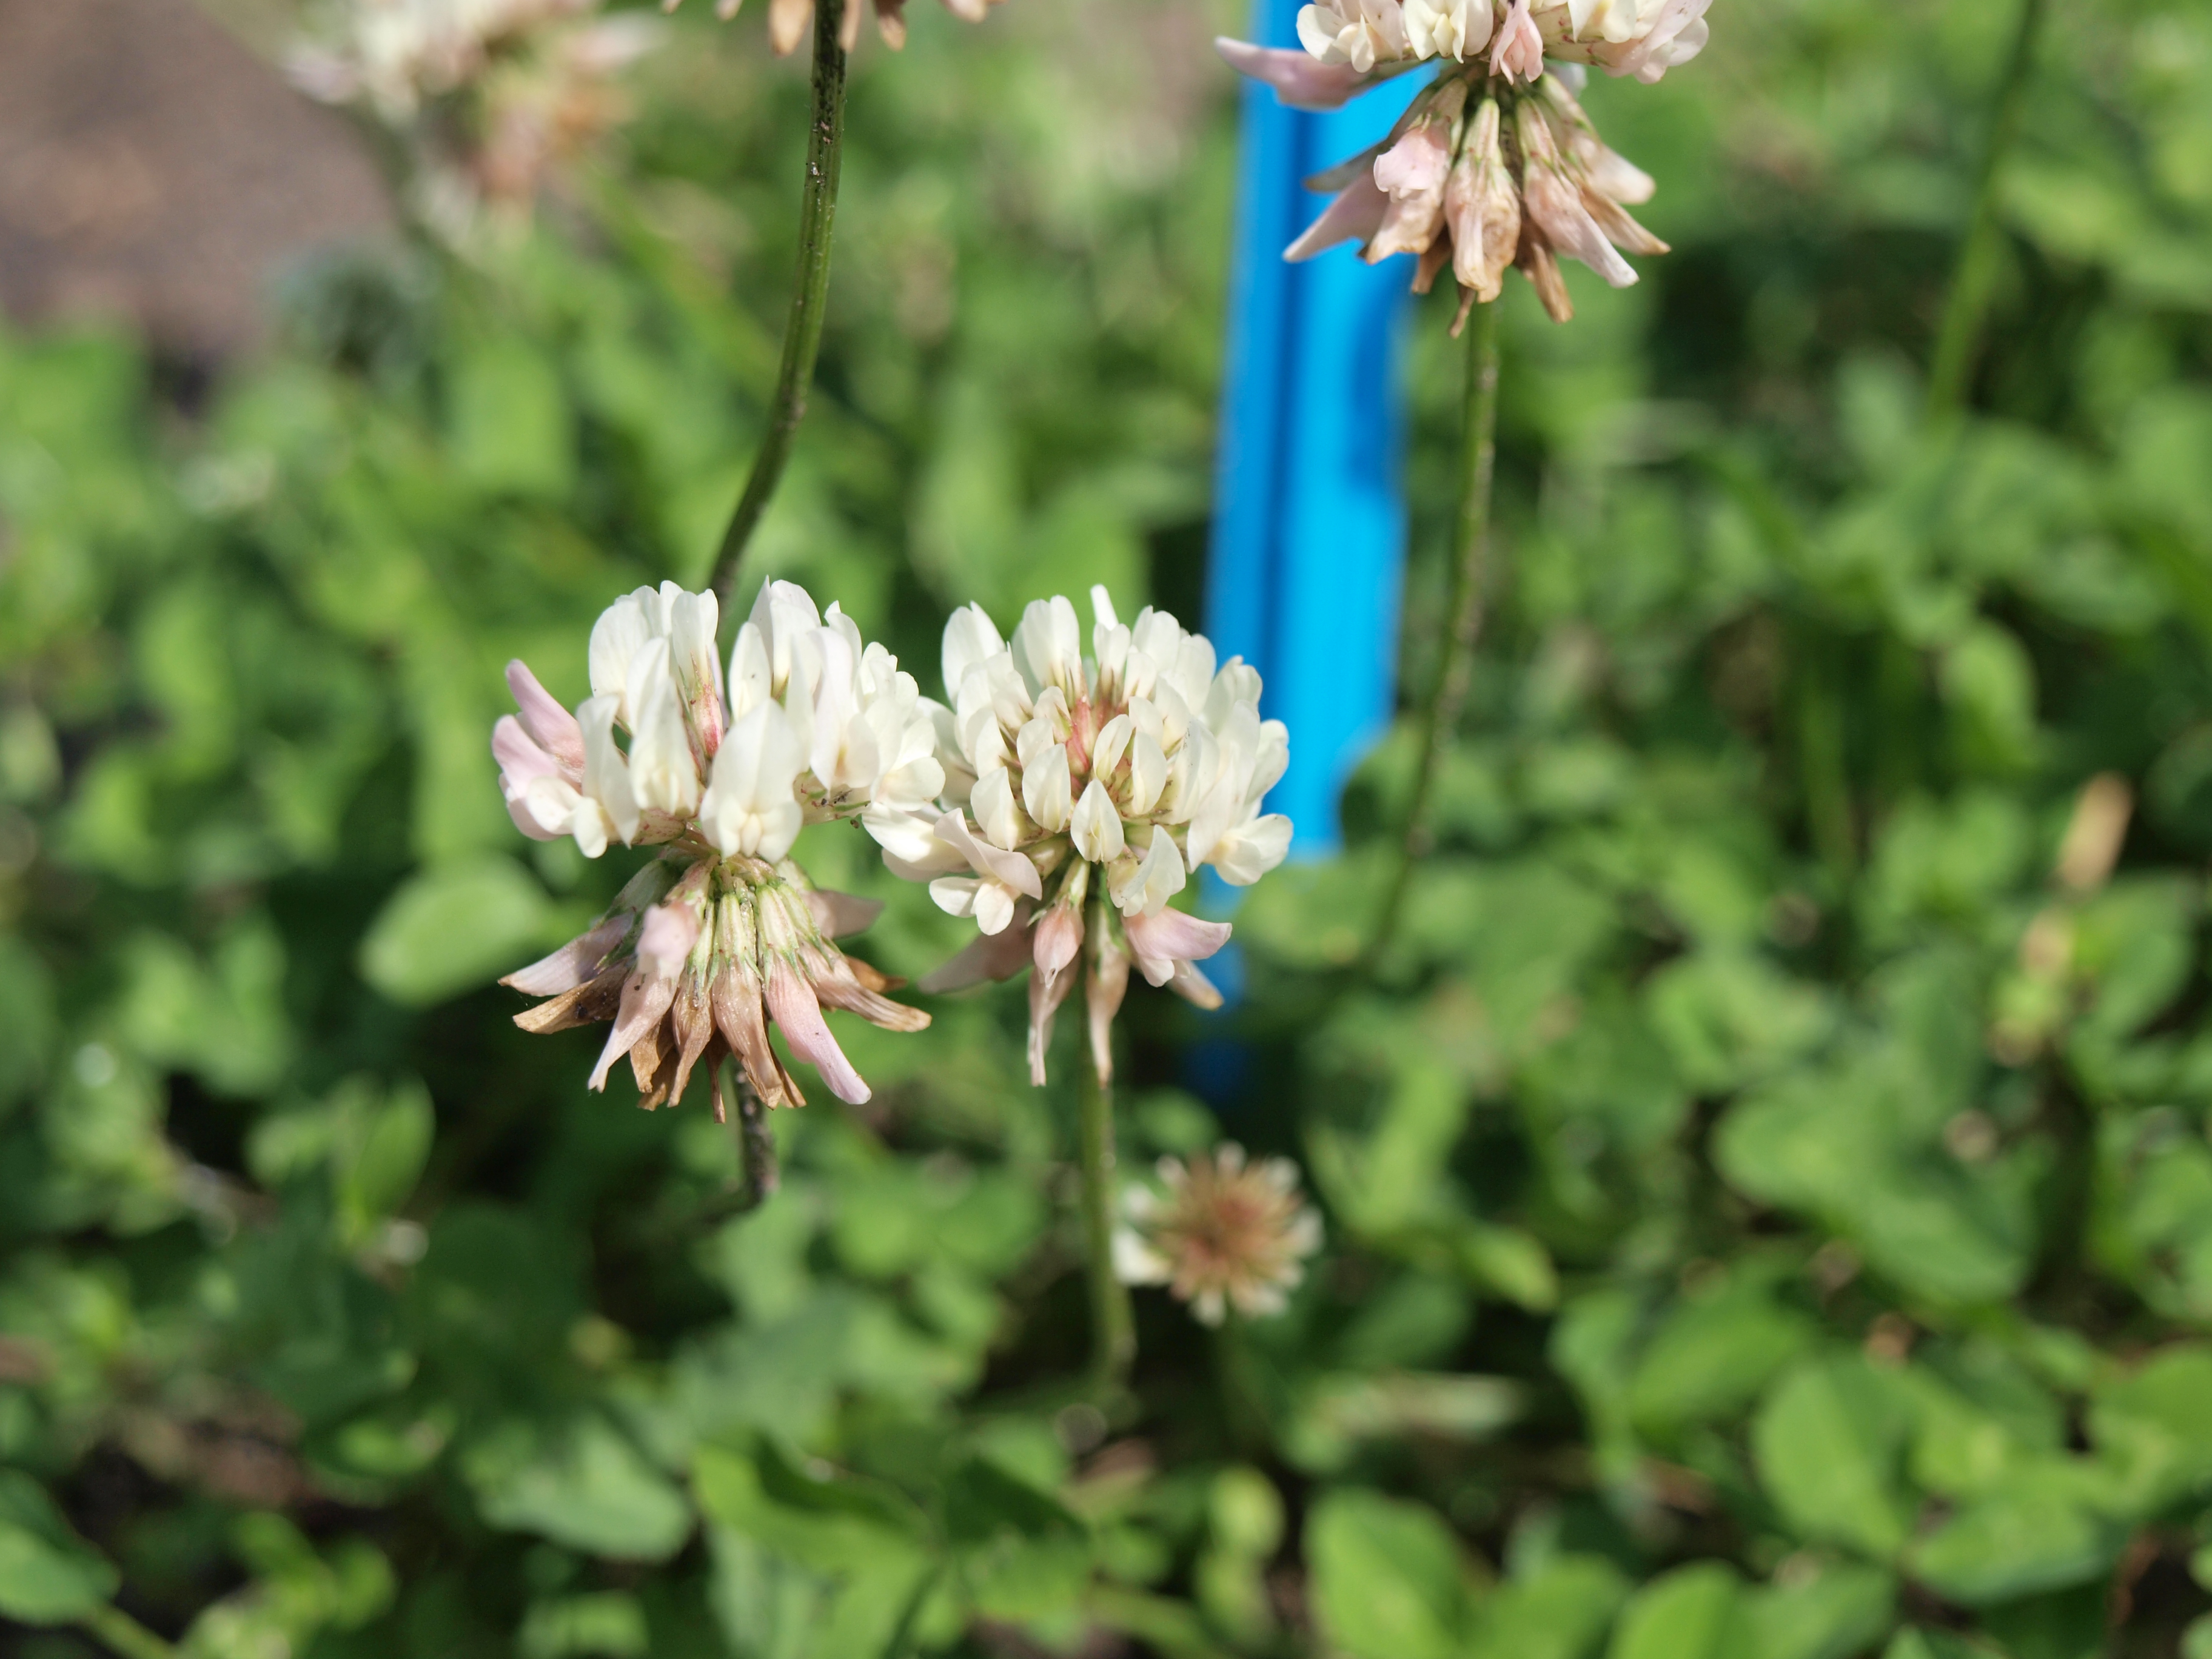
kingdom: Plantae
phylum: Tracheophyta
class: Magnoliopsida
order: Fabales
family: Fabaceae
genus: Trifolium
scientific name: Trifolium repens
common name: White clover
